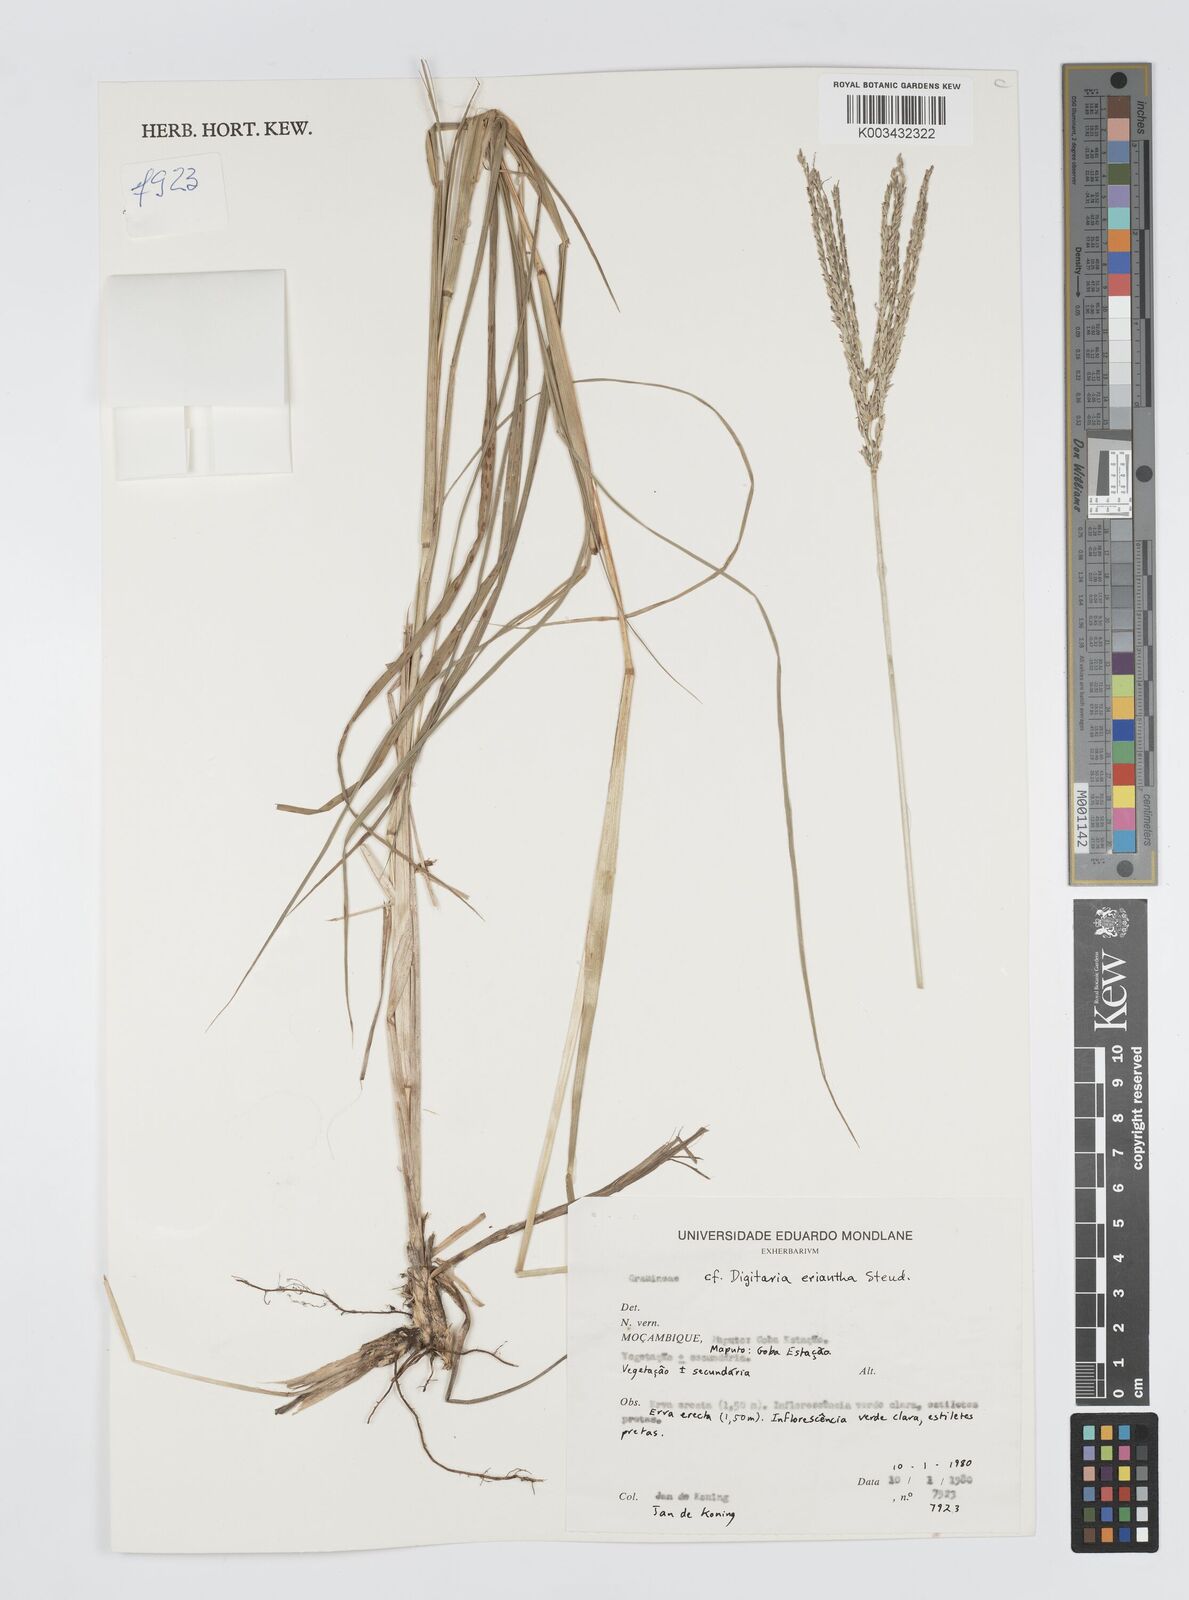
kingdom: Plantae
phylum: Tracheophyta
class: Liliopsida
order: Poales
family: Poaceae
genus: Digitaria
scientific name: Digitaria eriantha
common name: Digitgrass
